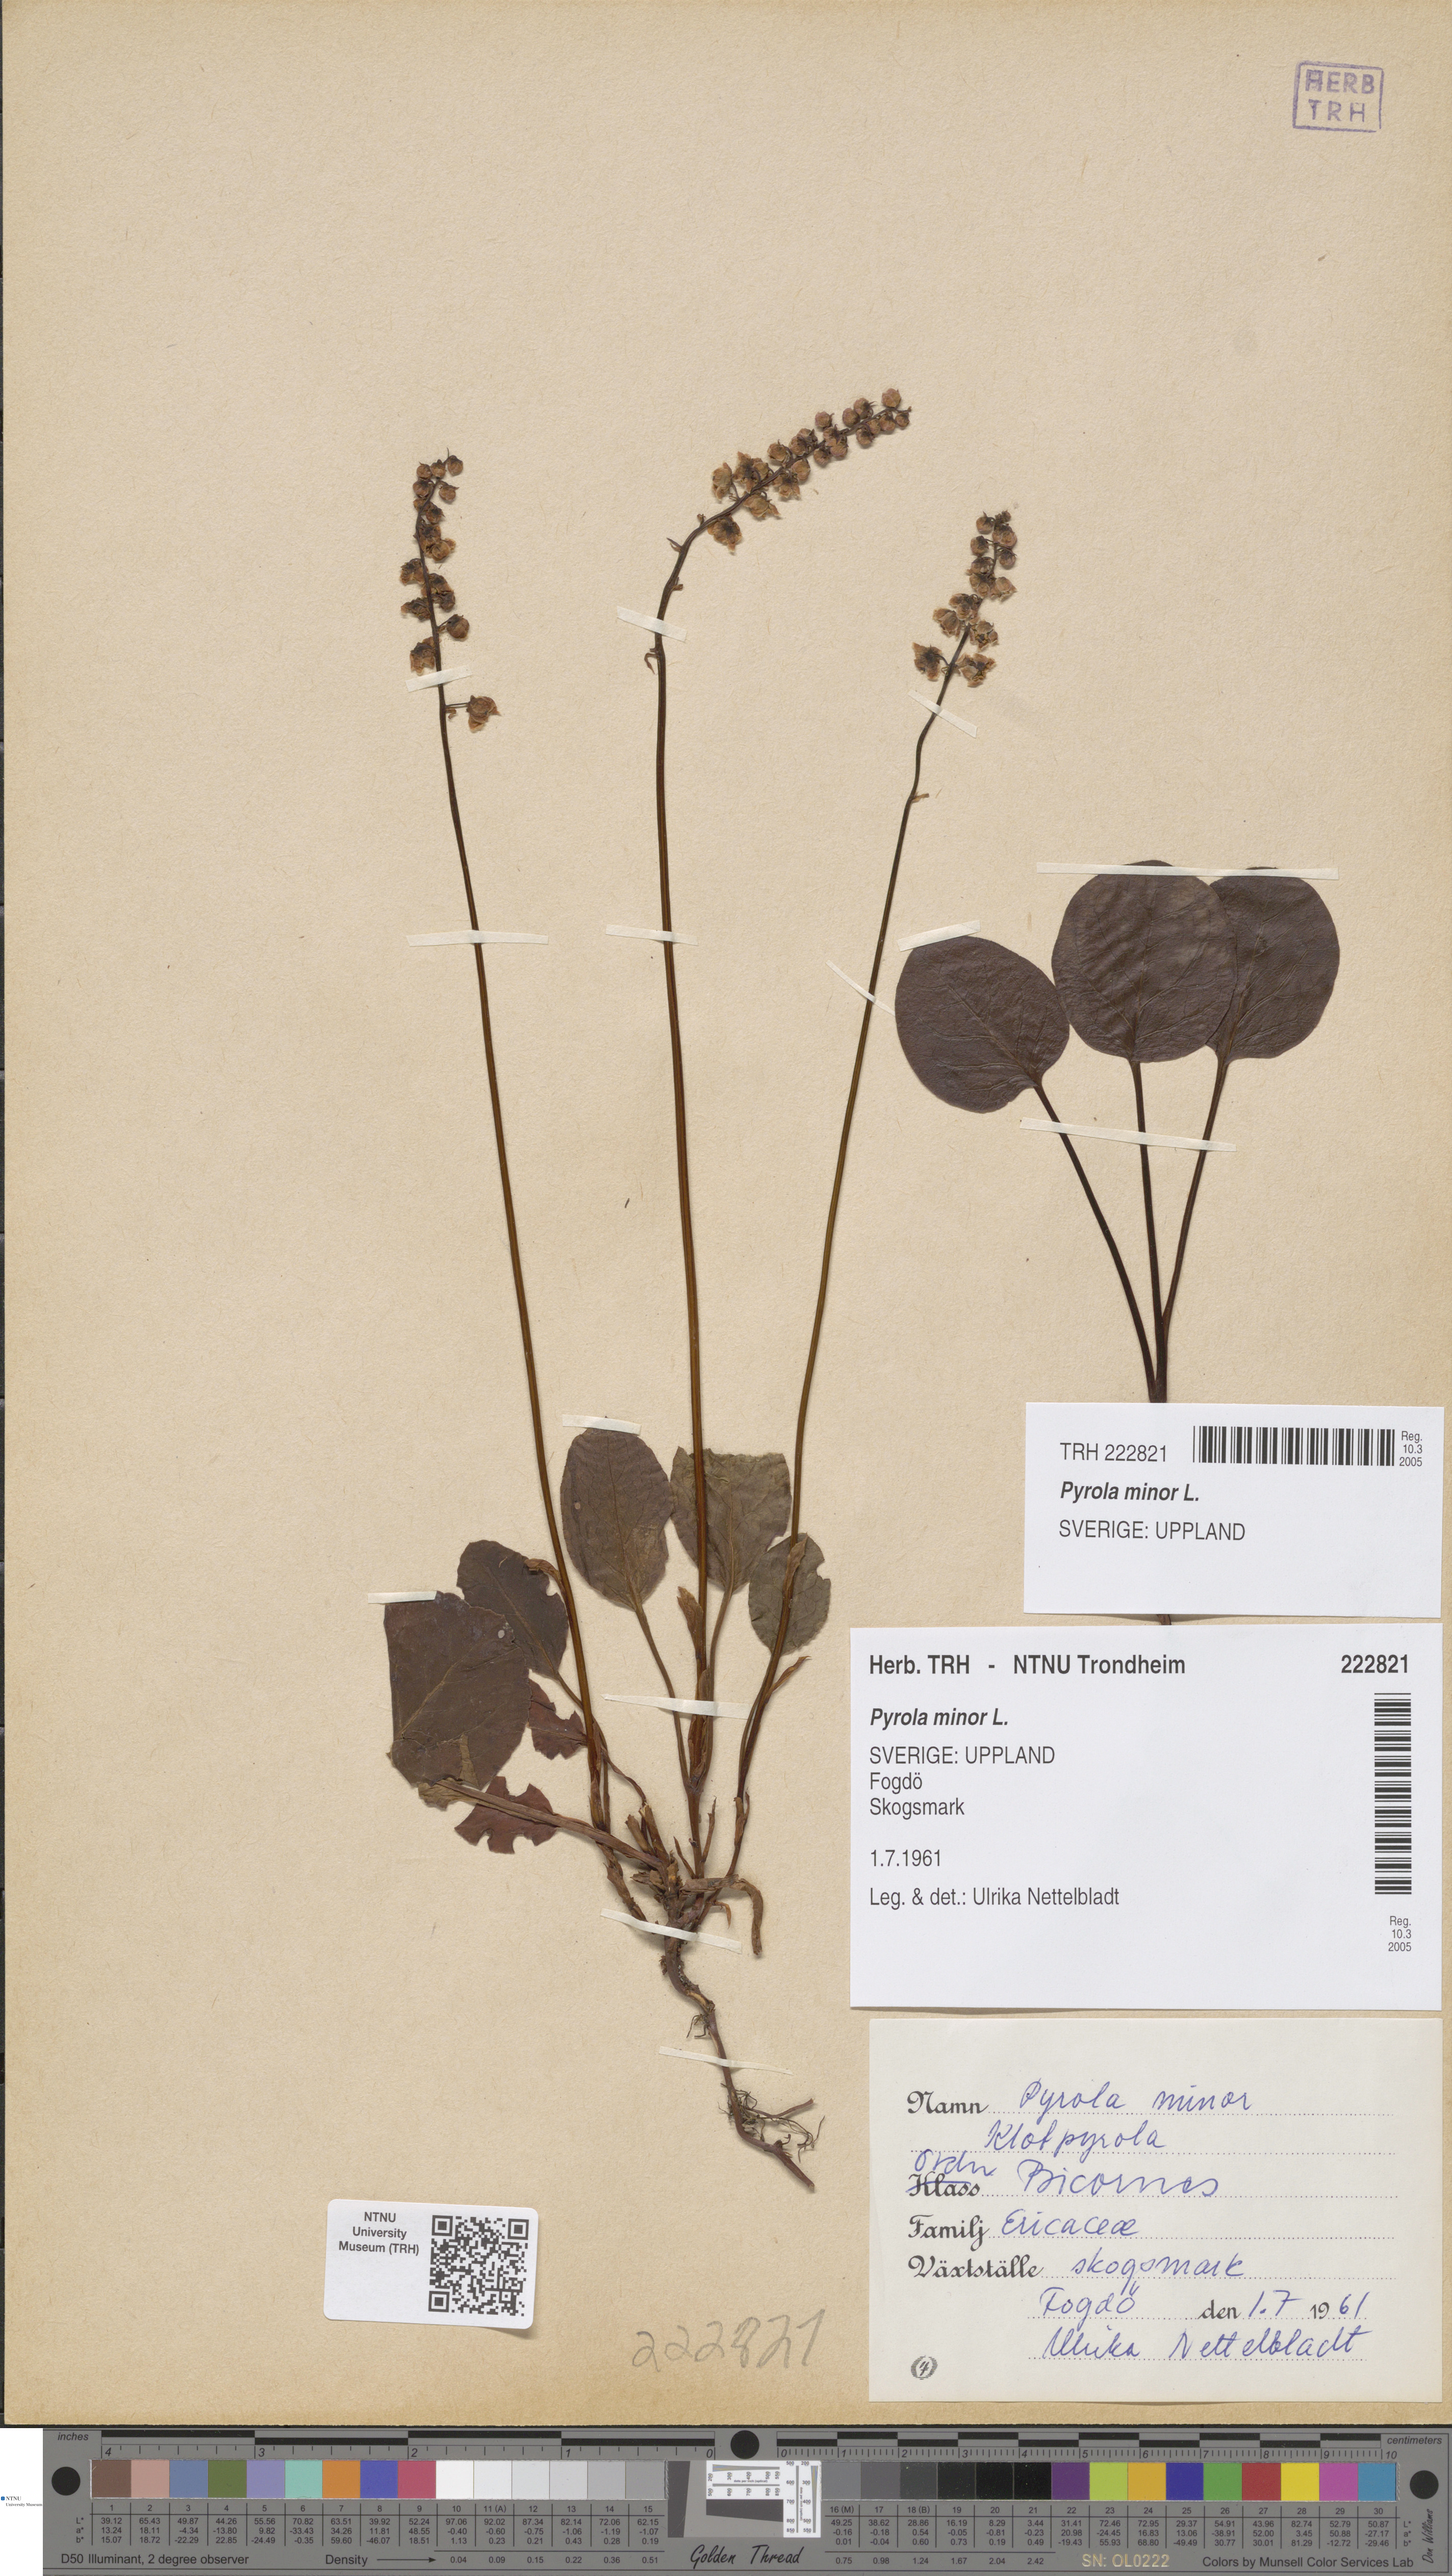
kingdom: Plantae
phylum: Tracheophyta
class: Magnoliopsida
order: Ericales
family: Ericaceae
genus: Pyrola
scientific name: Pyrola minor
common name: Common wintergreen
